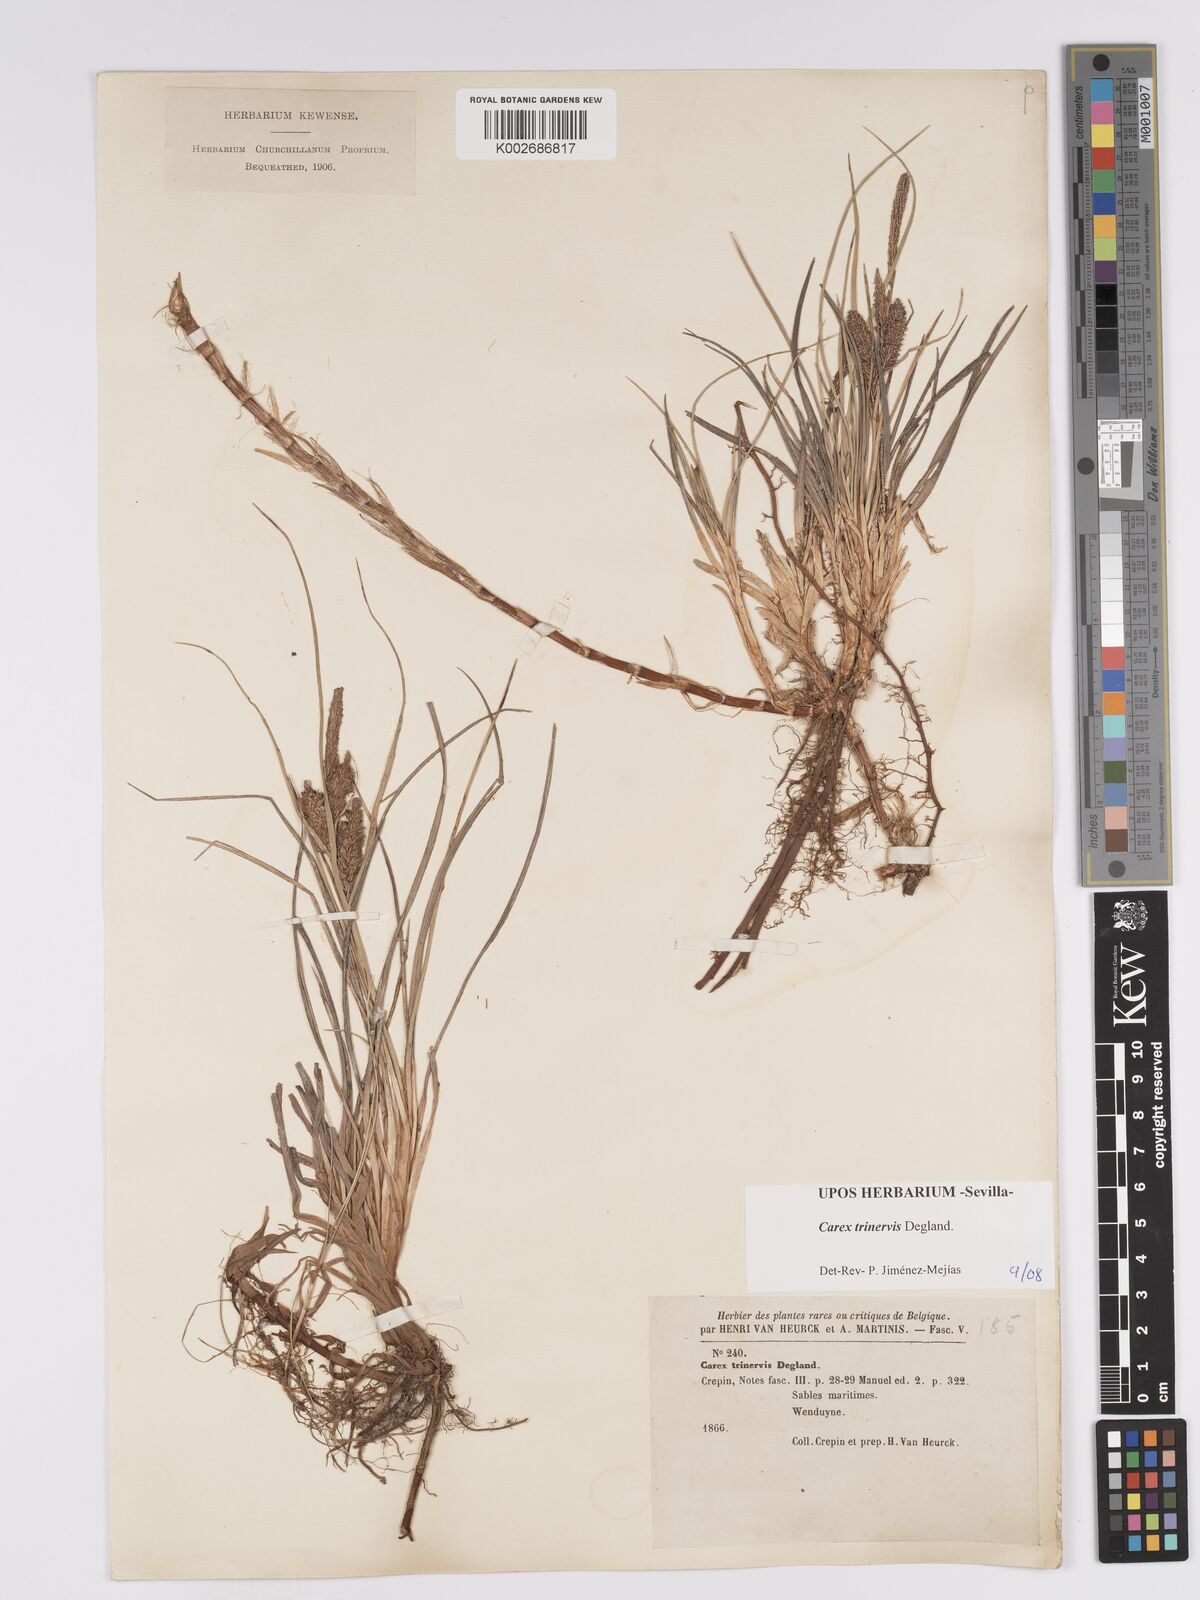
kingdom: Plantae
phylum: Tracheophyta
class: Liliopsida
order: Poales
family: Cyperaceae
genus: Carex
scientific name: Carex trinervis
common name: Three-nerved sedge
